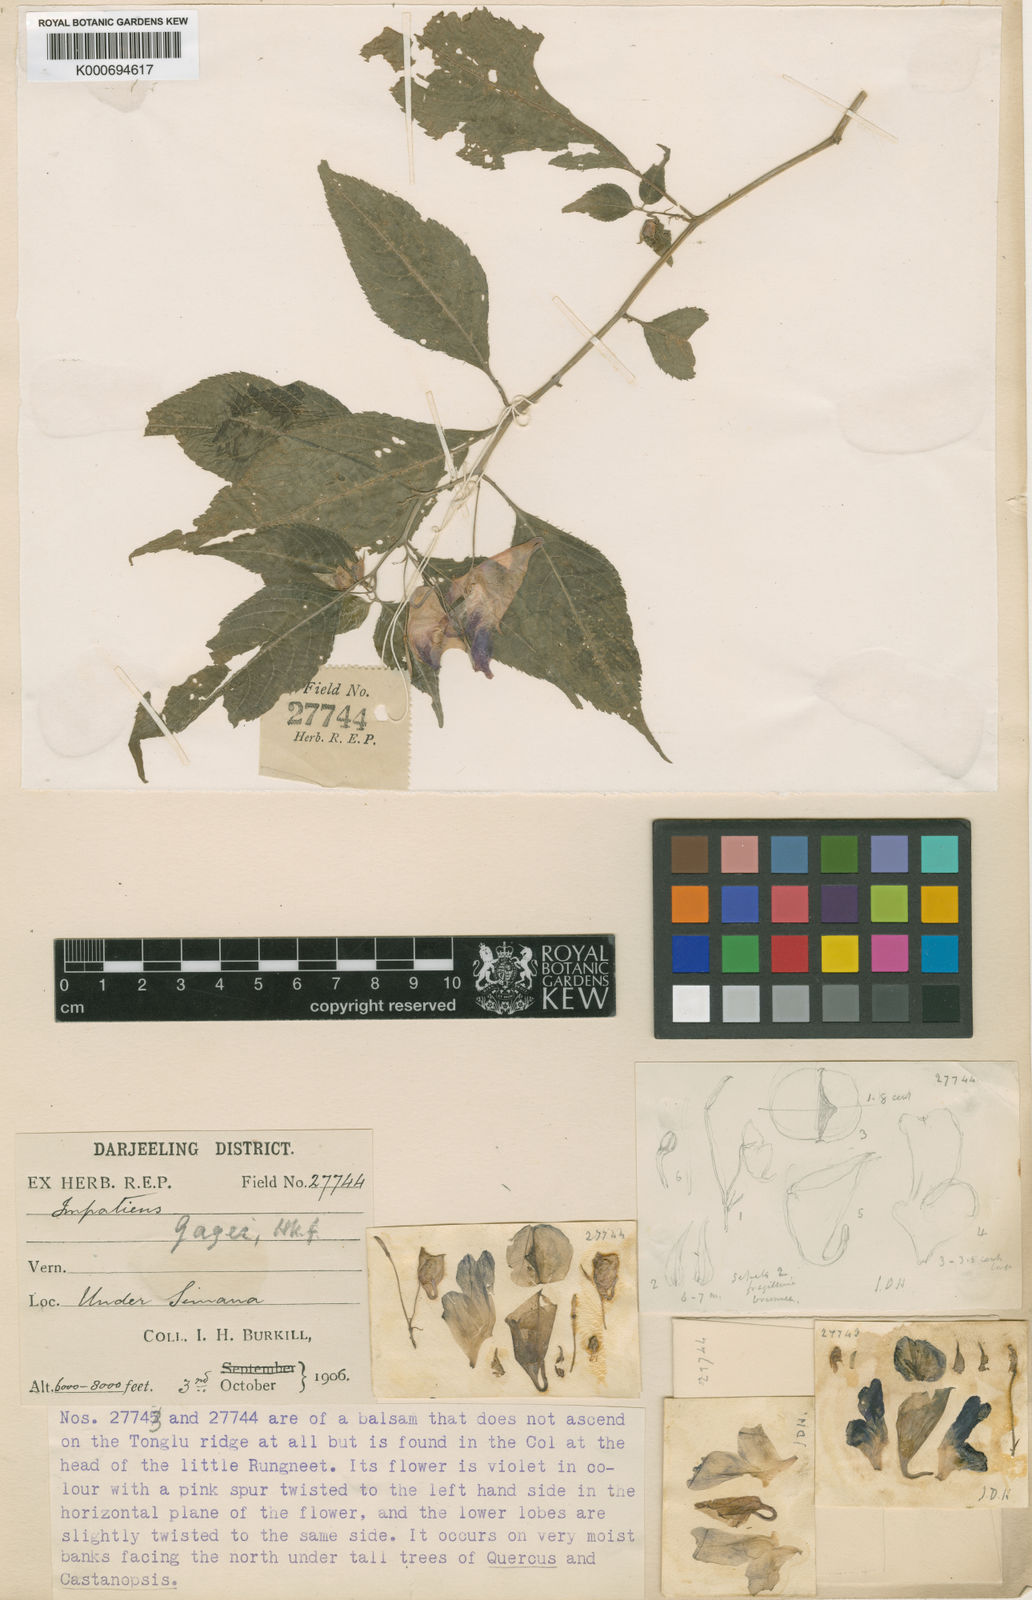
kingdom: Plantae
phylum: Tracheophyta
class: Magnoliopsida
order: Ericales
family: Balsaminaceae
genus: Impatiens
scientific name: Impatiens
